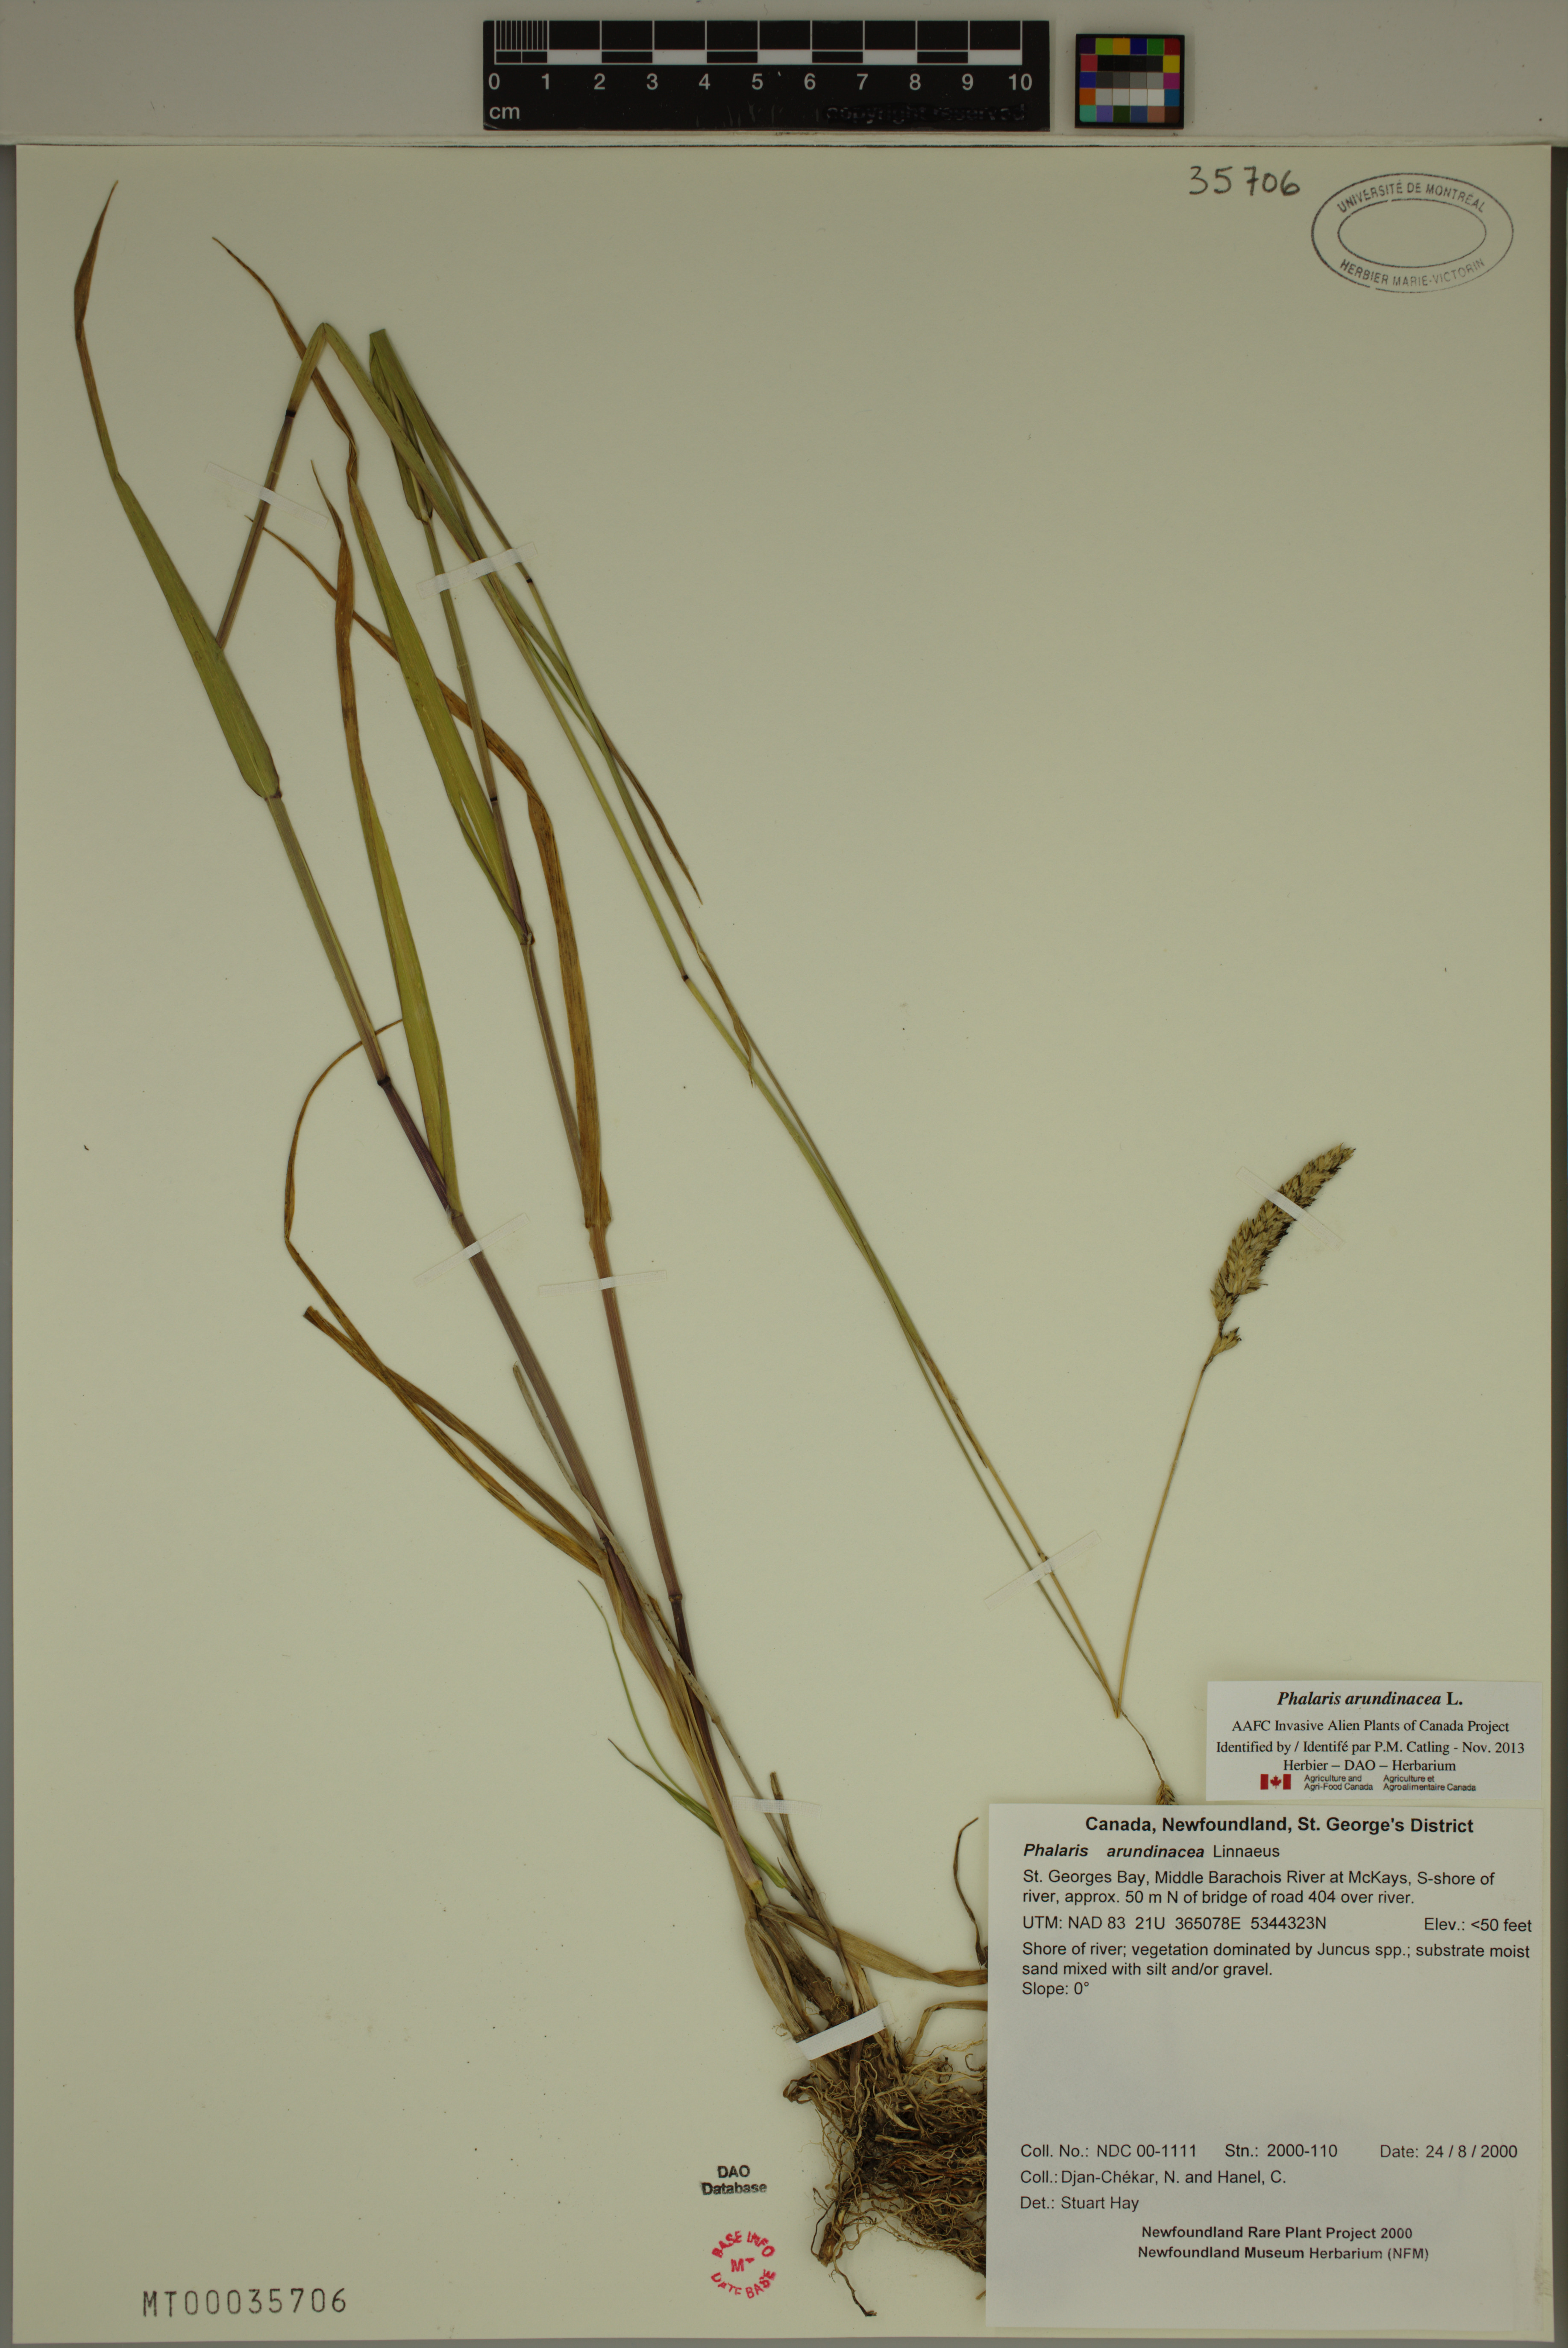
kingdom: Plantae
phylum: Tracheophyta
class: Liliopsida
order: Poales
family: Poaceae
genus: Phalaris
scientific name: Phalaris arundinacea
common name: Reed canary-grass
